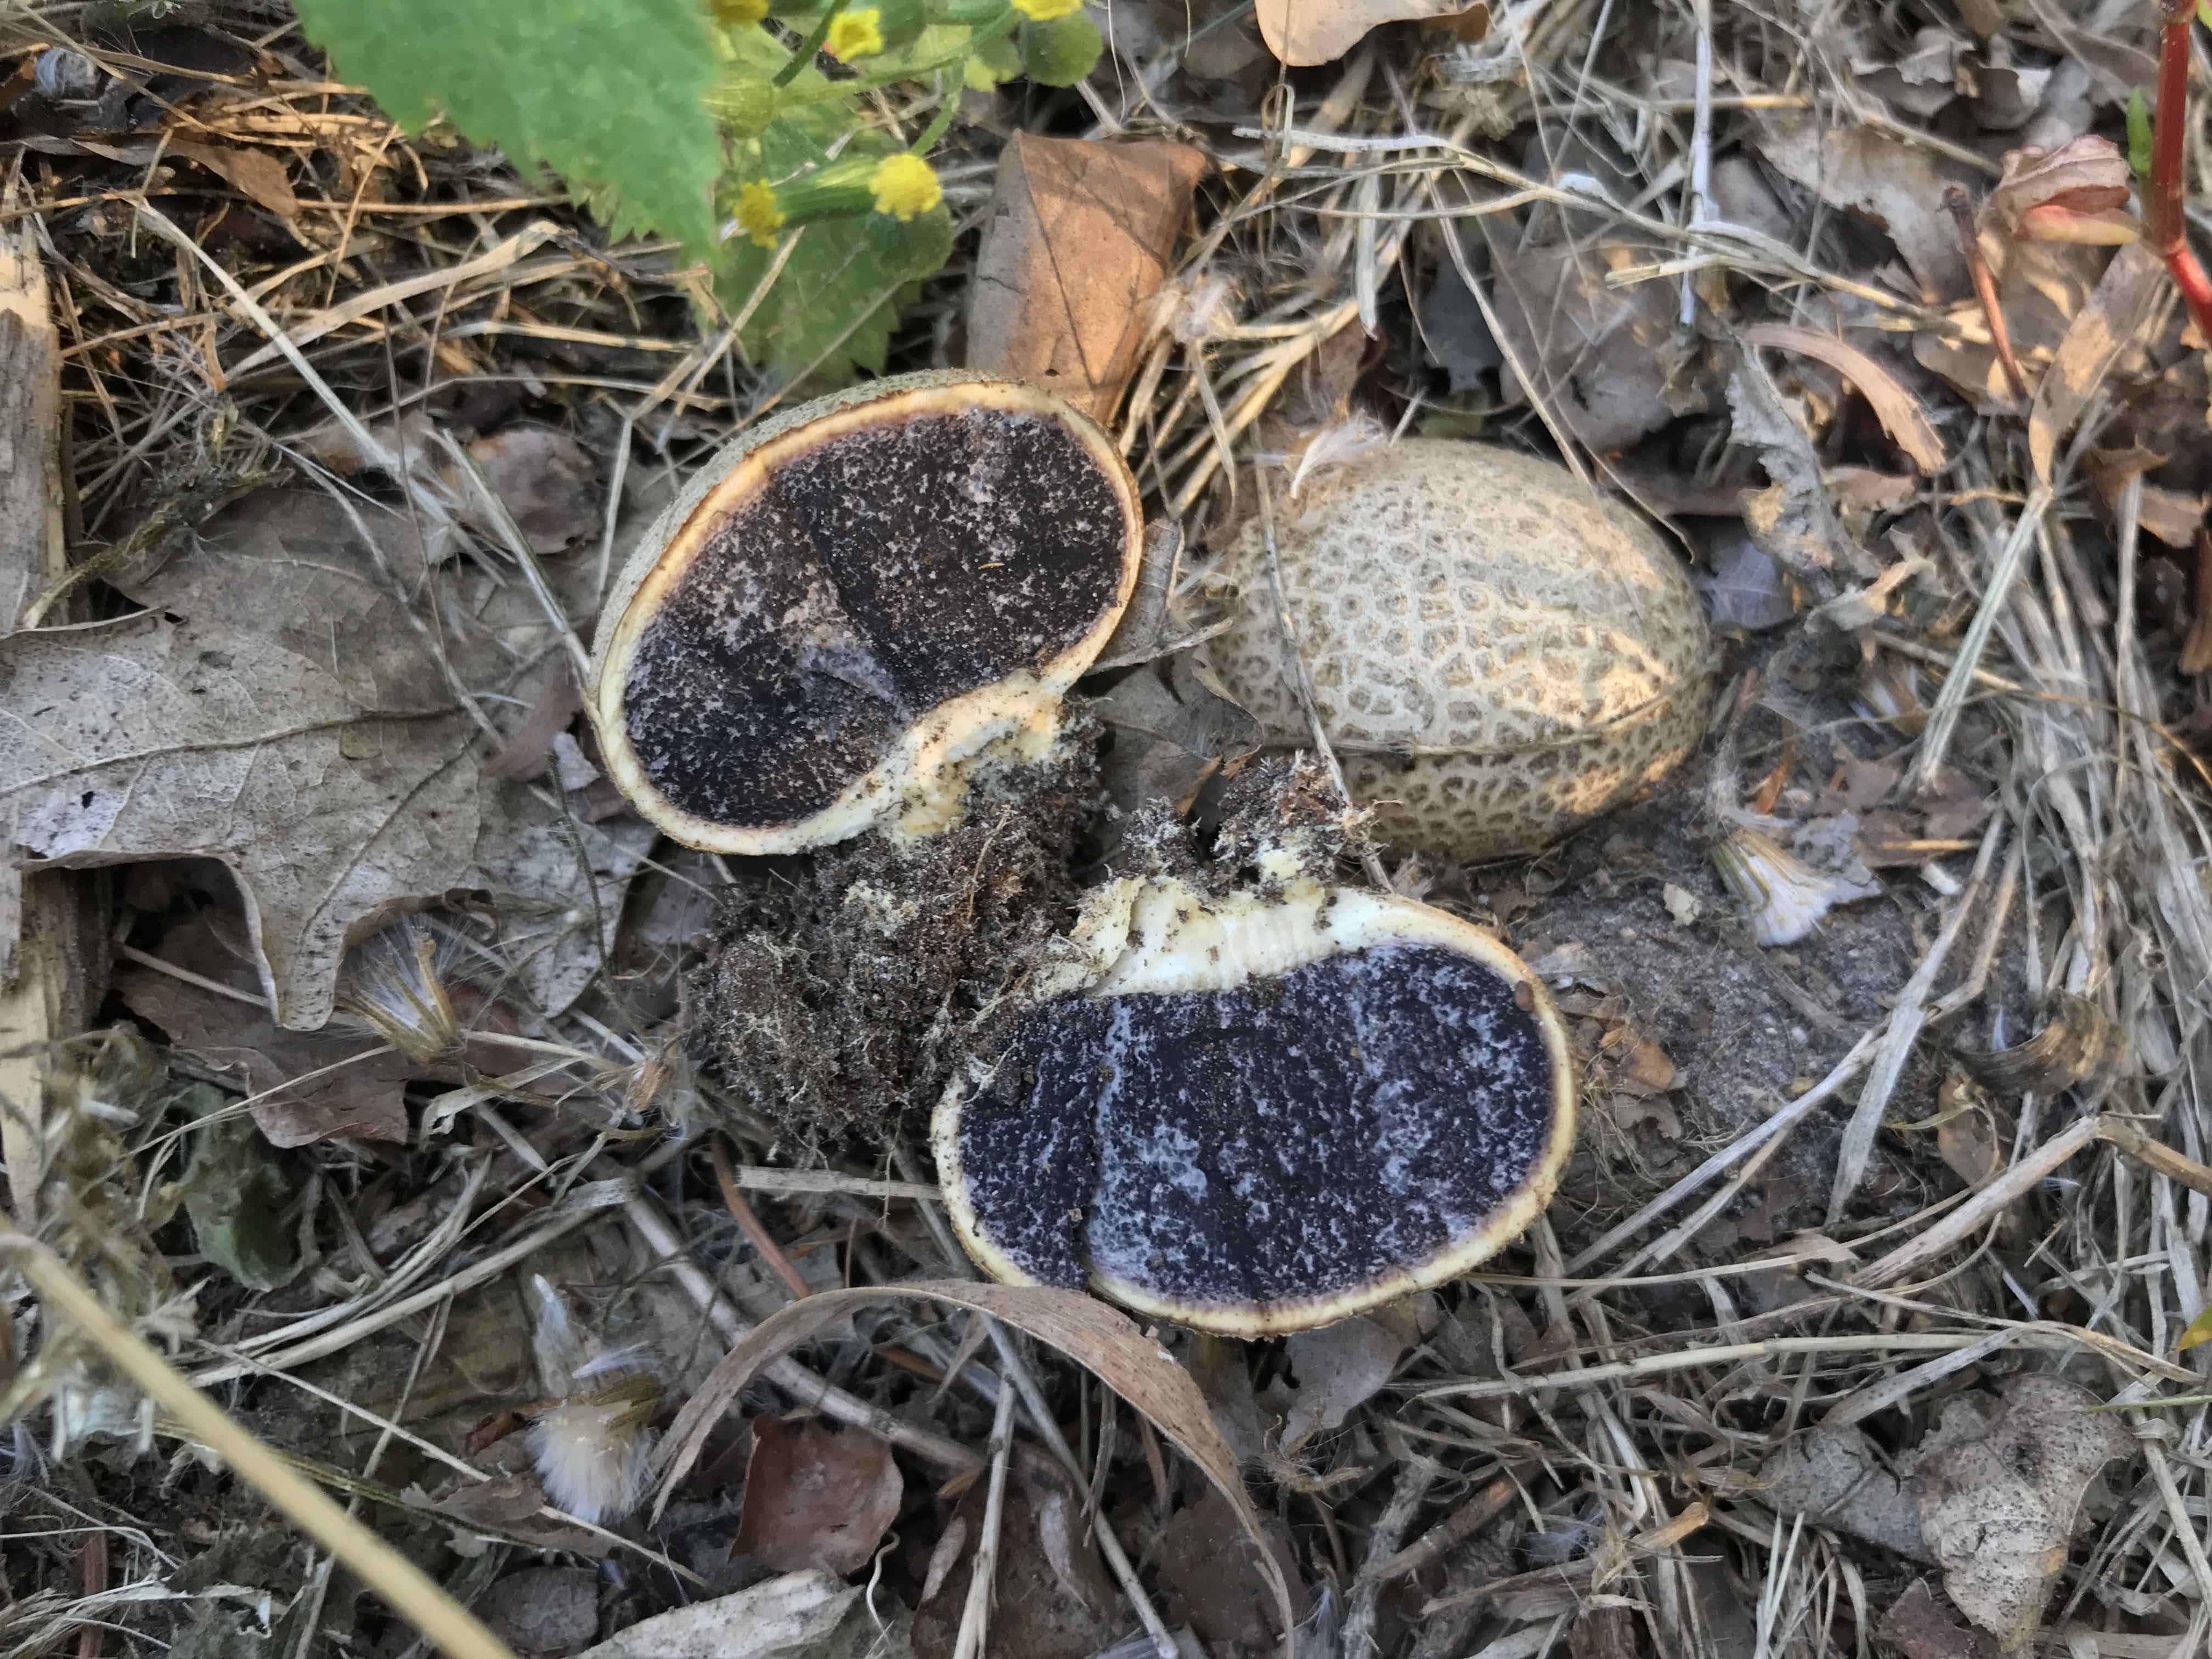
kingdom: Fungi
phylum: Basidiomycota
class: Agaricomycetes
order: Boletales
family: Sclerodermataceae
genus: Scleroderma
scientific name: Scleroderma citrinum
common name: almindelig bruskbold
